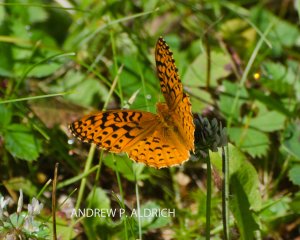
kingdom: Animalia
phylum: Arthropoda
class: Insecta
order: Lepidoptera
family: Nymphalidae
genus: Speyeria
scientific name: Speyeria aphrodite
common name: Aphrodite Fritillary
